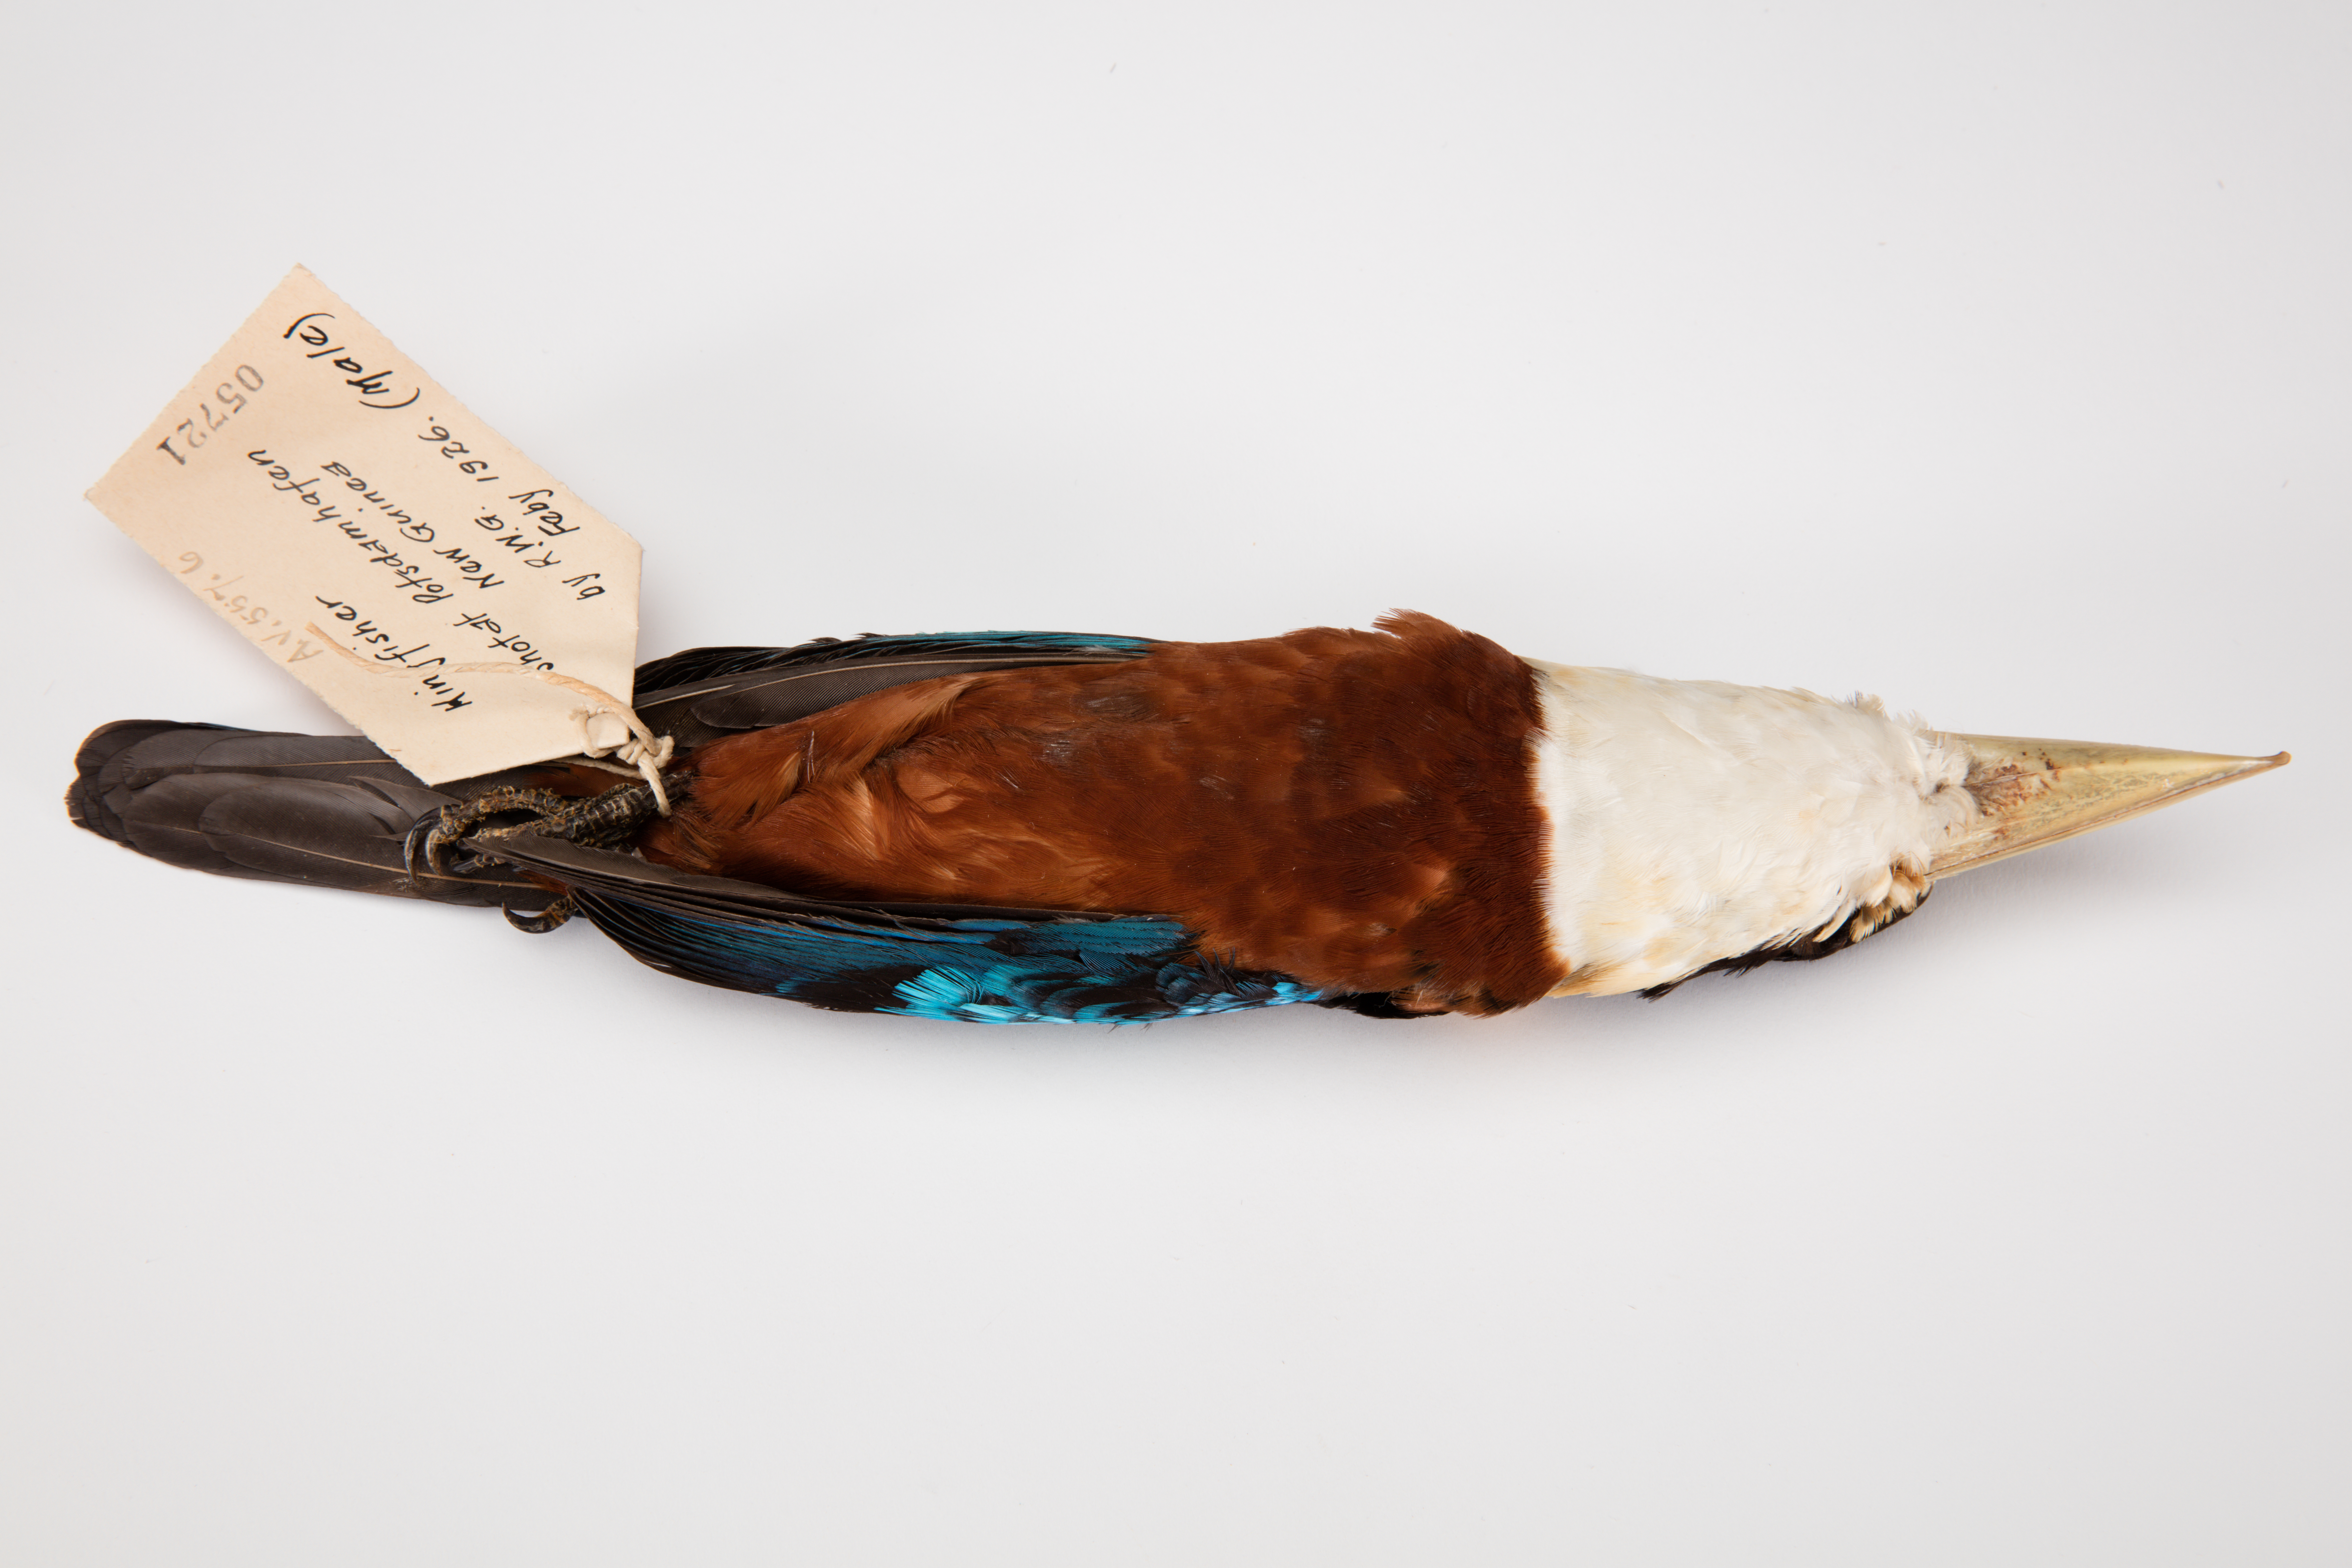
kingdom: Animalia
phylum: Chordata
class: Aves
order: Coraciiformes
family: Alcedinidae
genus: Dacelo
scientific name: Dacelo gaudichaud
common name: Rufous-bellied kookaburra
